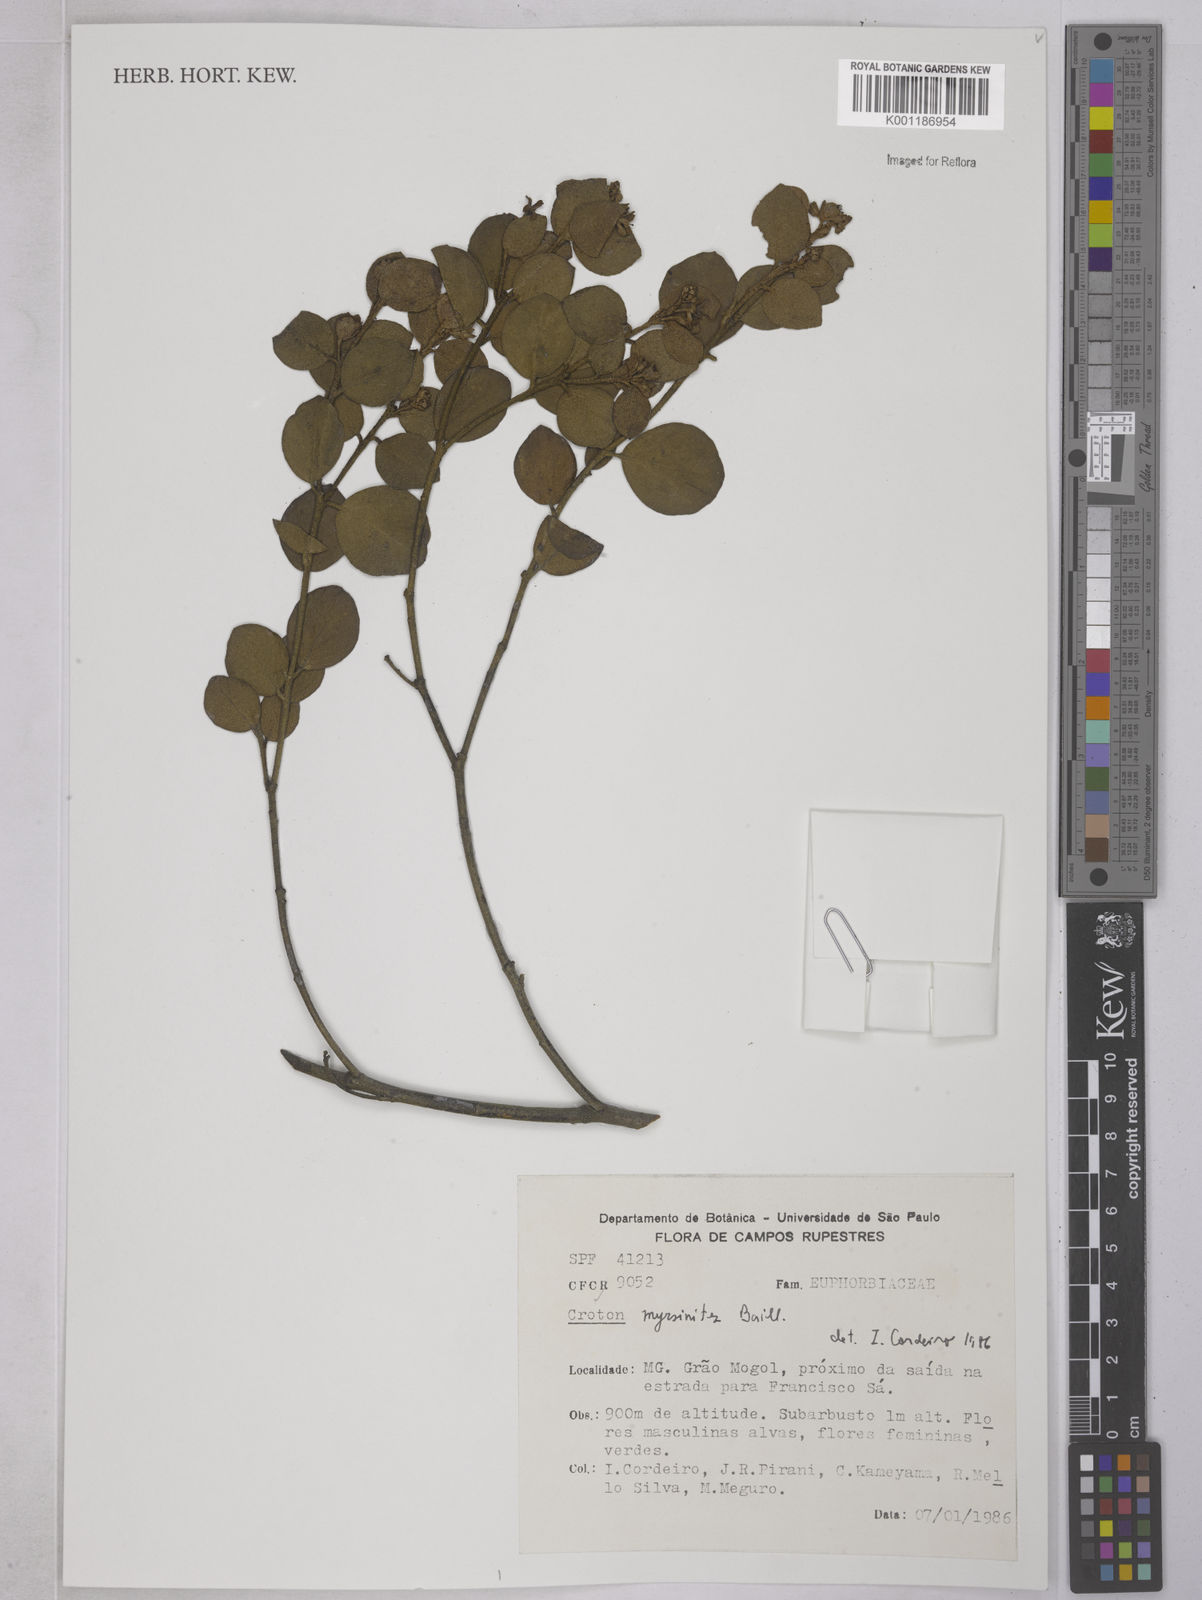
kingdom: Plantae
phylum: Tracheophyta
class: Magnoliopsida
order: Malpighiales
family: Euphorbiaceae
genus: Croton
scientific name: Croton myrsinites
